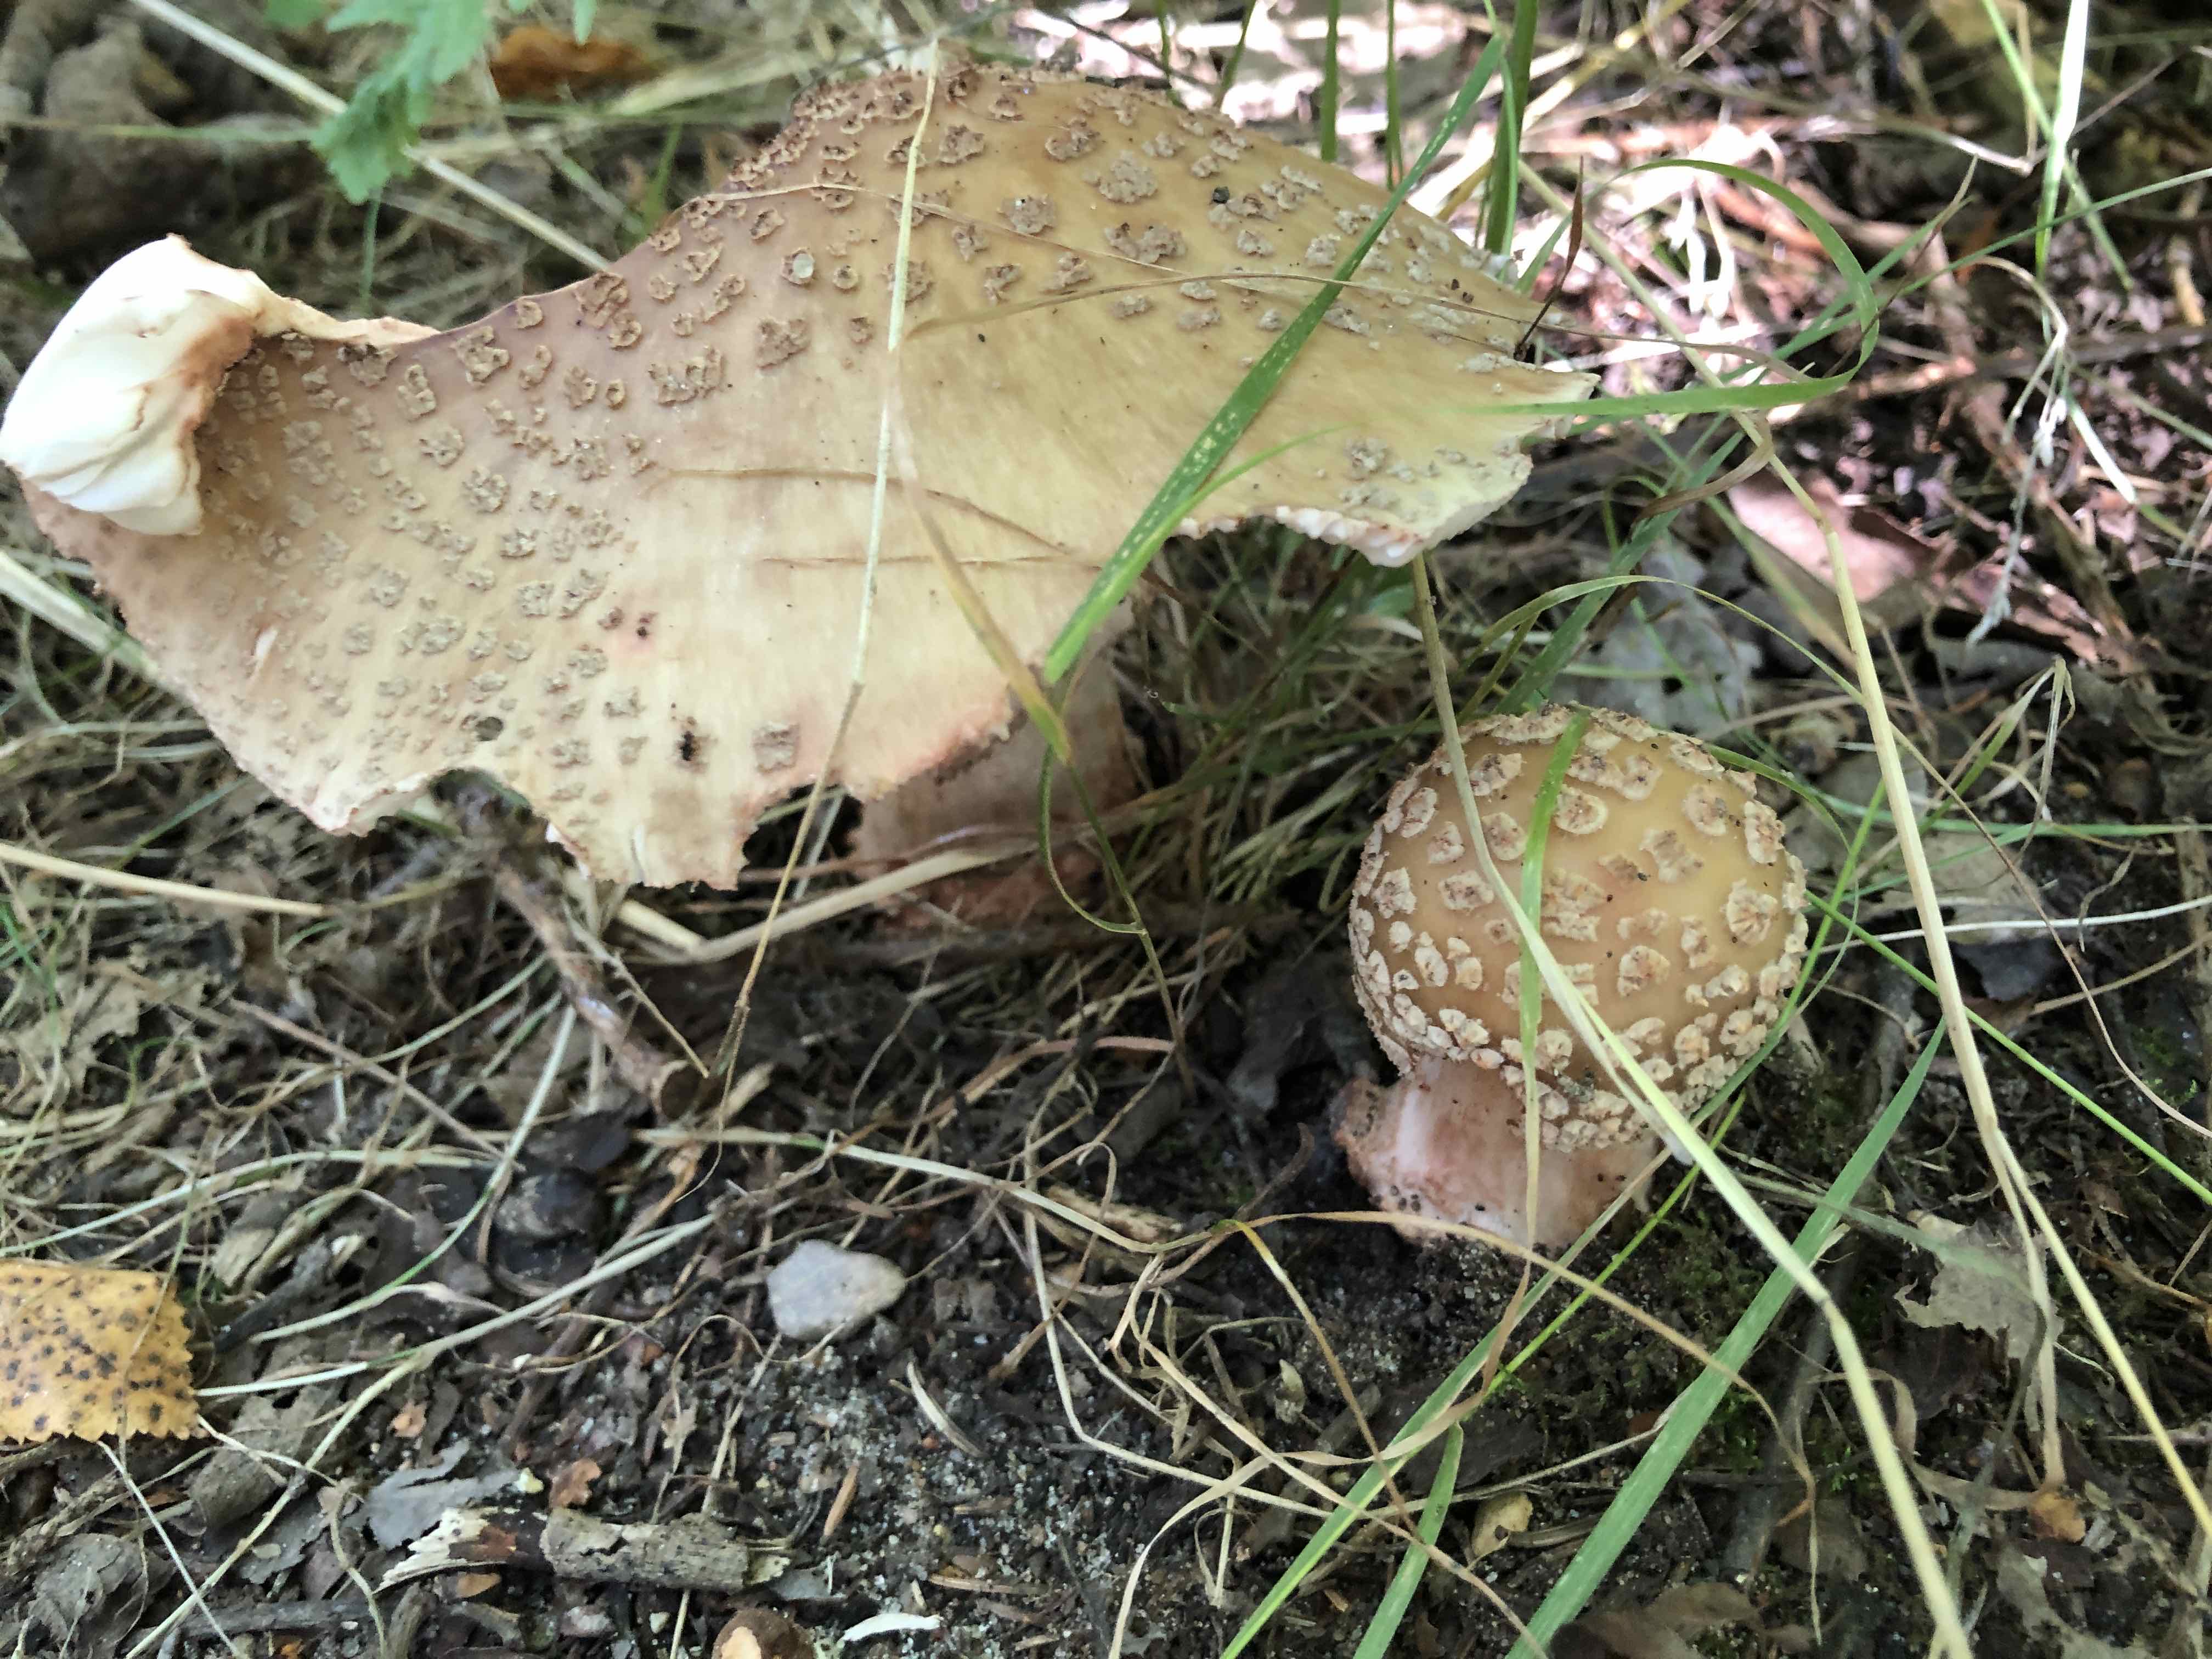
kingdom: Fungi
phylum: Basidiomycota
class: Agaricomycetes
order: Agaricales
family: Amanitaceae
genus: Amanita
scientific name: Amanita rubescens
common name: rødmende fluesvamp
